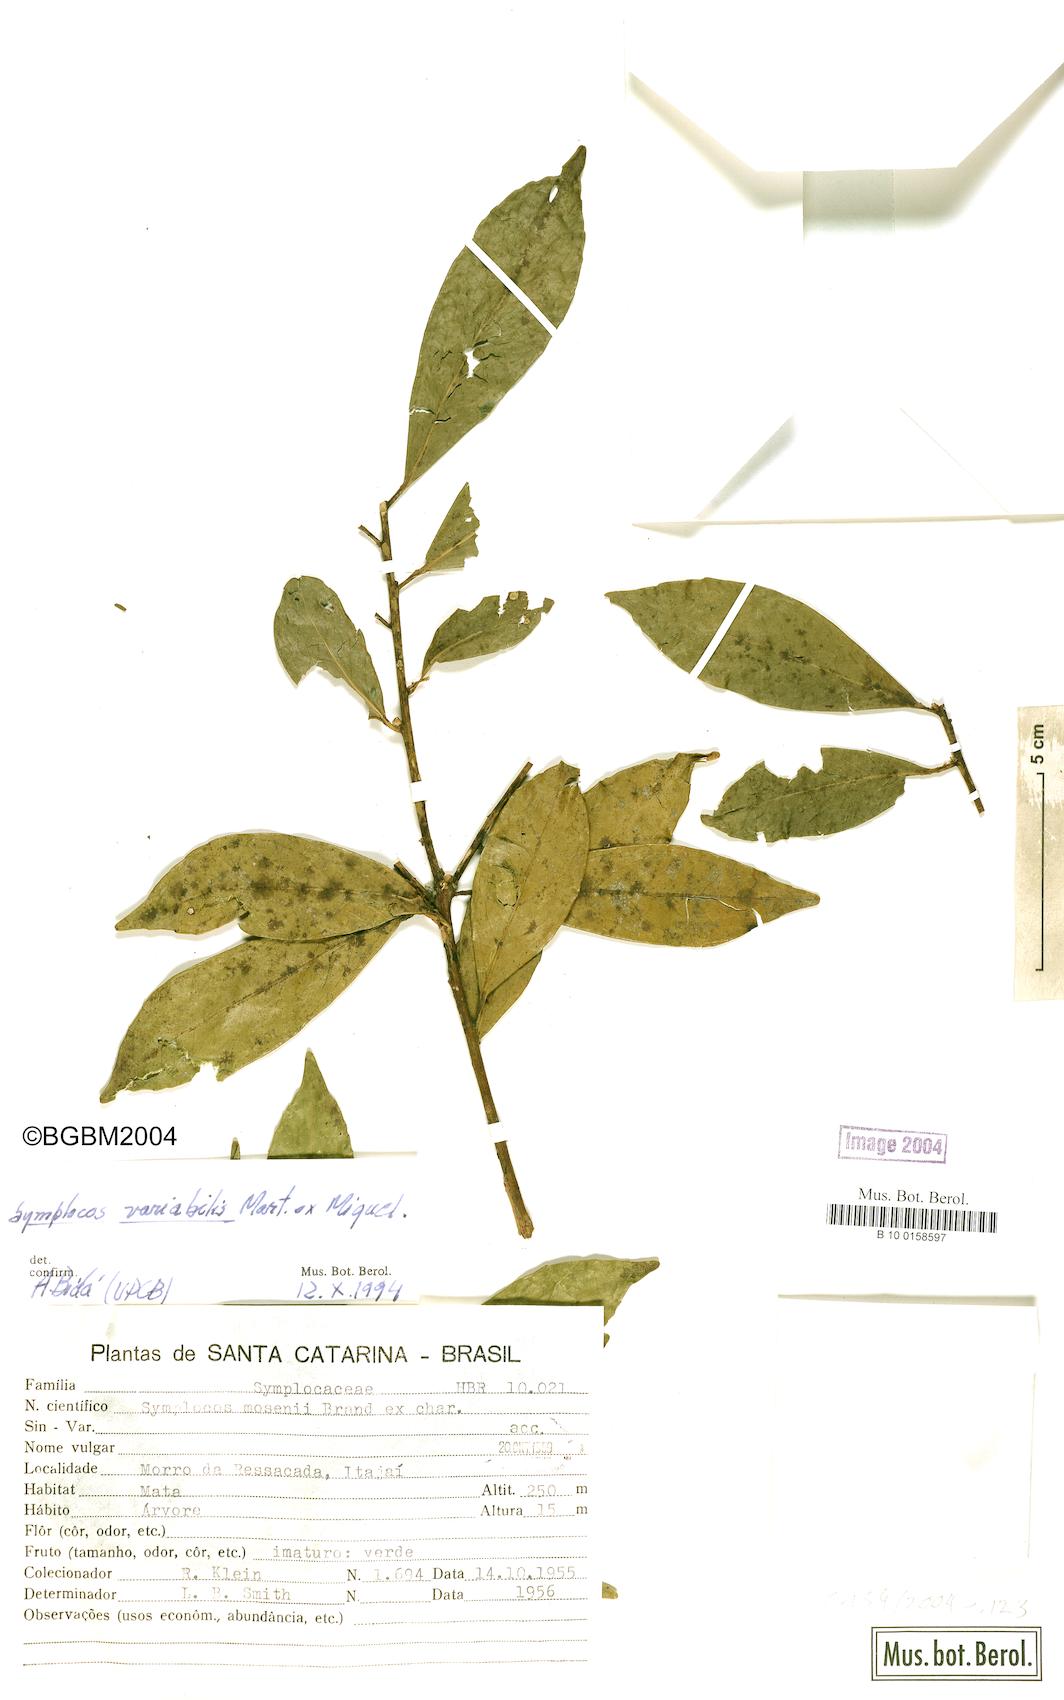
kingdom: Plantae
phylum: Tracheophyta
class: Magnoliopsida
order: Ericales
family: Symplocaceae
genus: Symplocos
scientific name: Symplocos estrellensis
